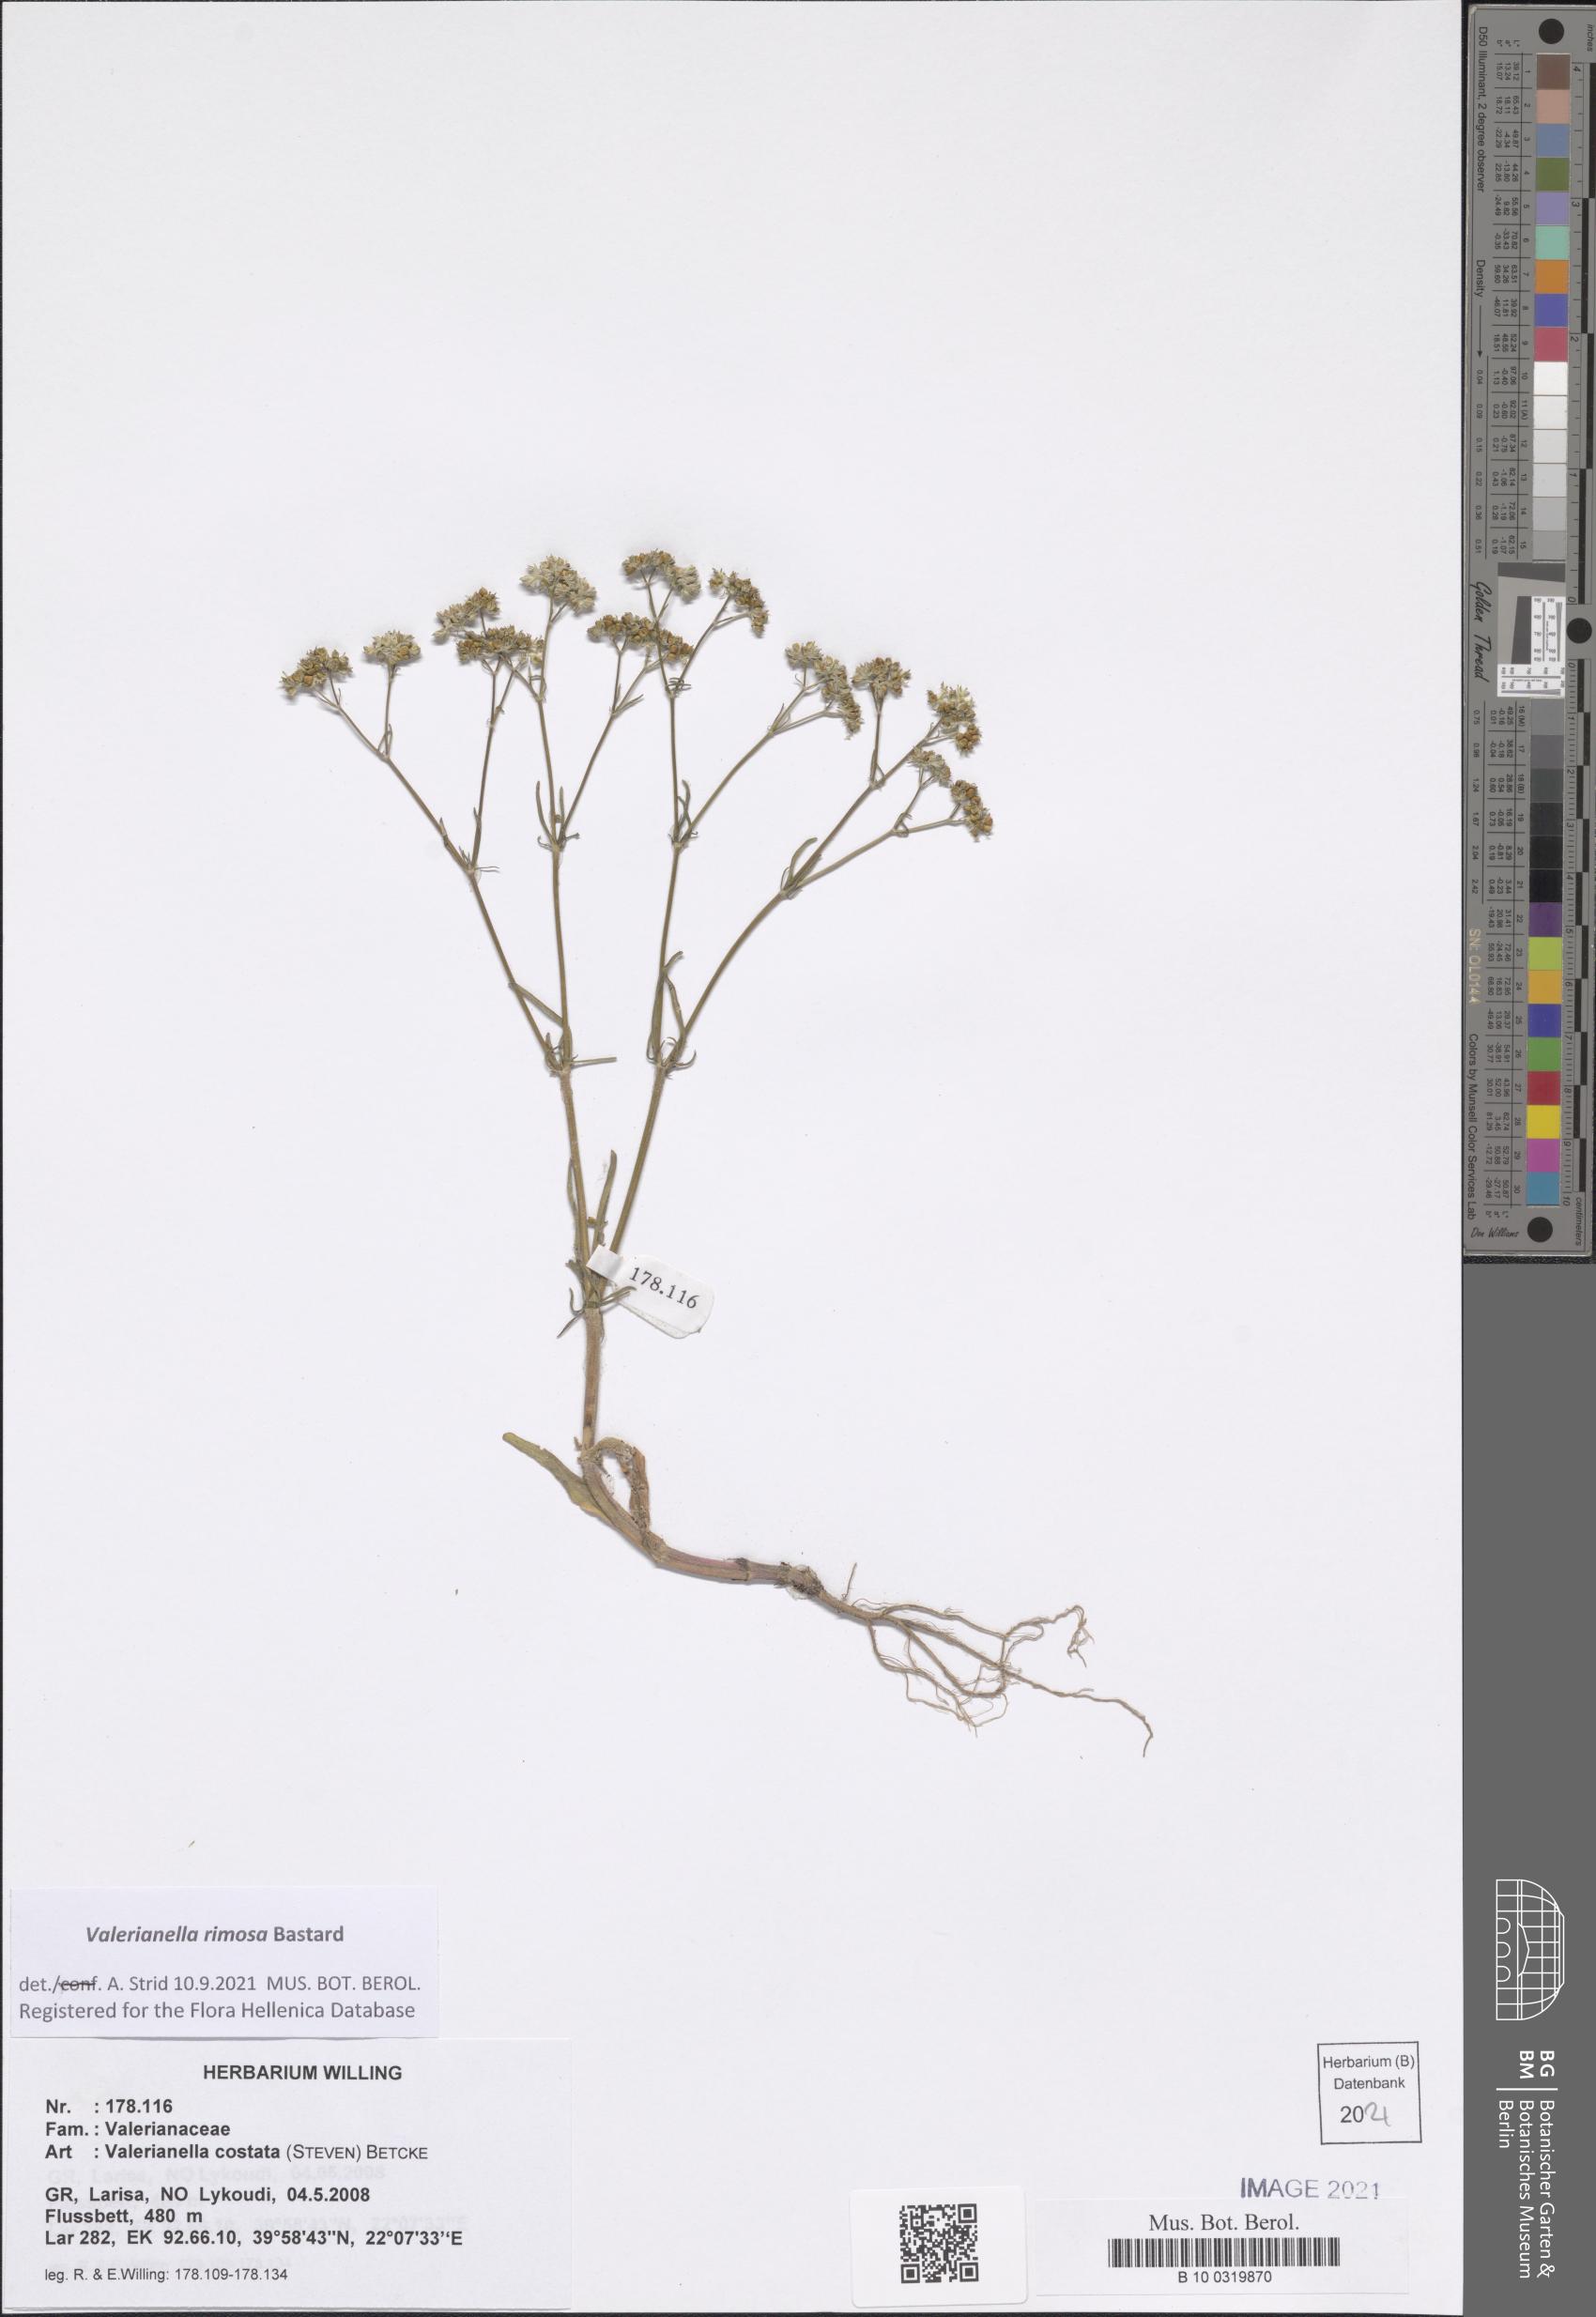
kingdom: Plantae
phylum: Tracheophyta
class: Magnoliopsida
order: Dipsacales
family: Caprifoliaceae
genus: Valerianella
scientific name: Valerianella rimosa
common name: Broad-fruited cornsalad
